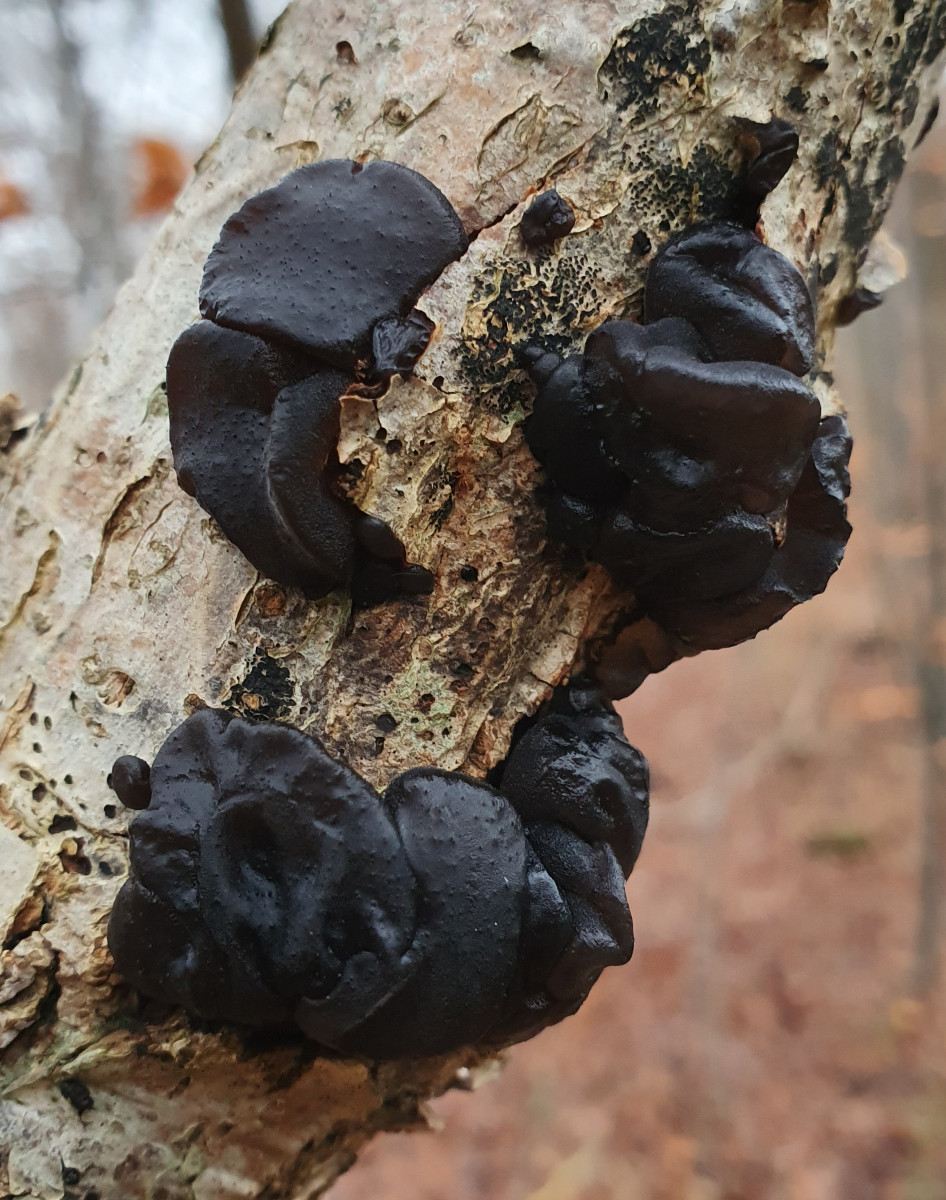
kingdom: Fungi
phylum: Basidiomycota
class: Agaricomycetes
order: Auriculariales
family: Auriculariaceae
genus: Exidia
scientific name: Exidia glandulosa
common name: ege-bævretop
